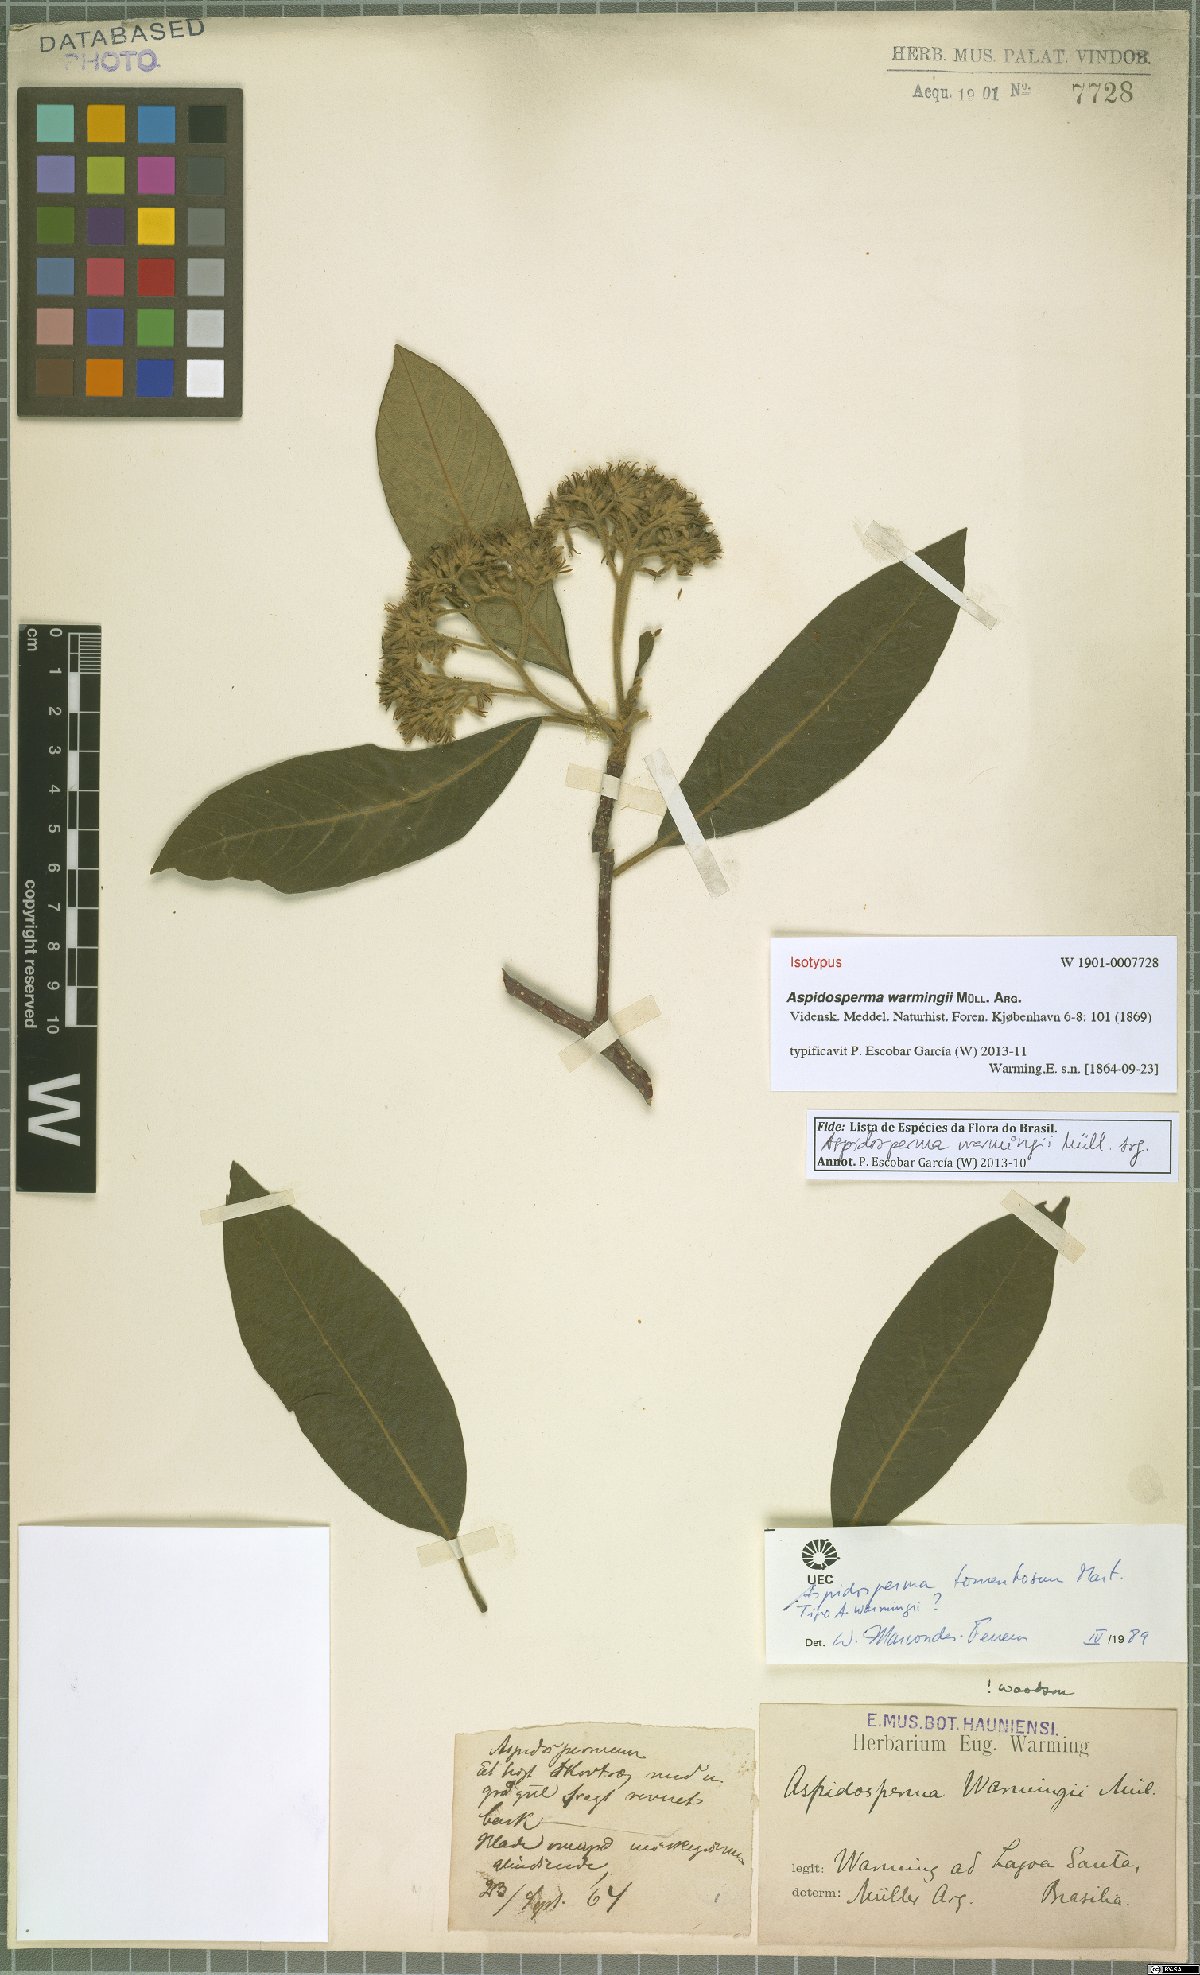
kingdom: Plantae
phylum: Tracheophyta
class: Magnoliopsida
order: Gentianales
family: Apocynaceae
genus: Aspidosperma
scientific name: Aspidosperma camporum
